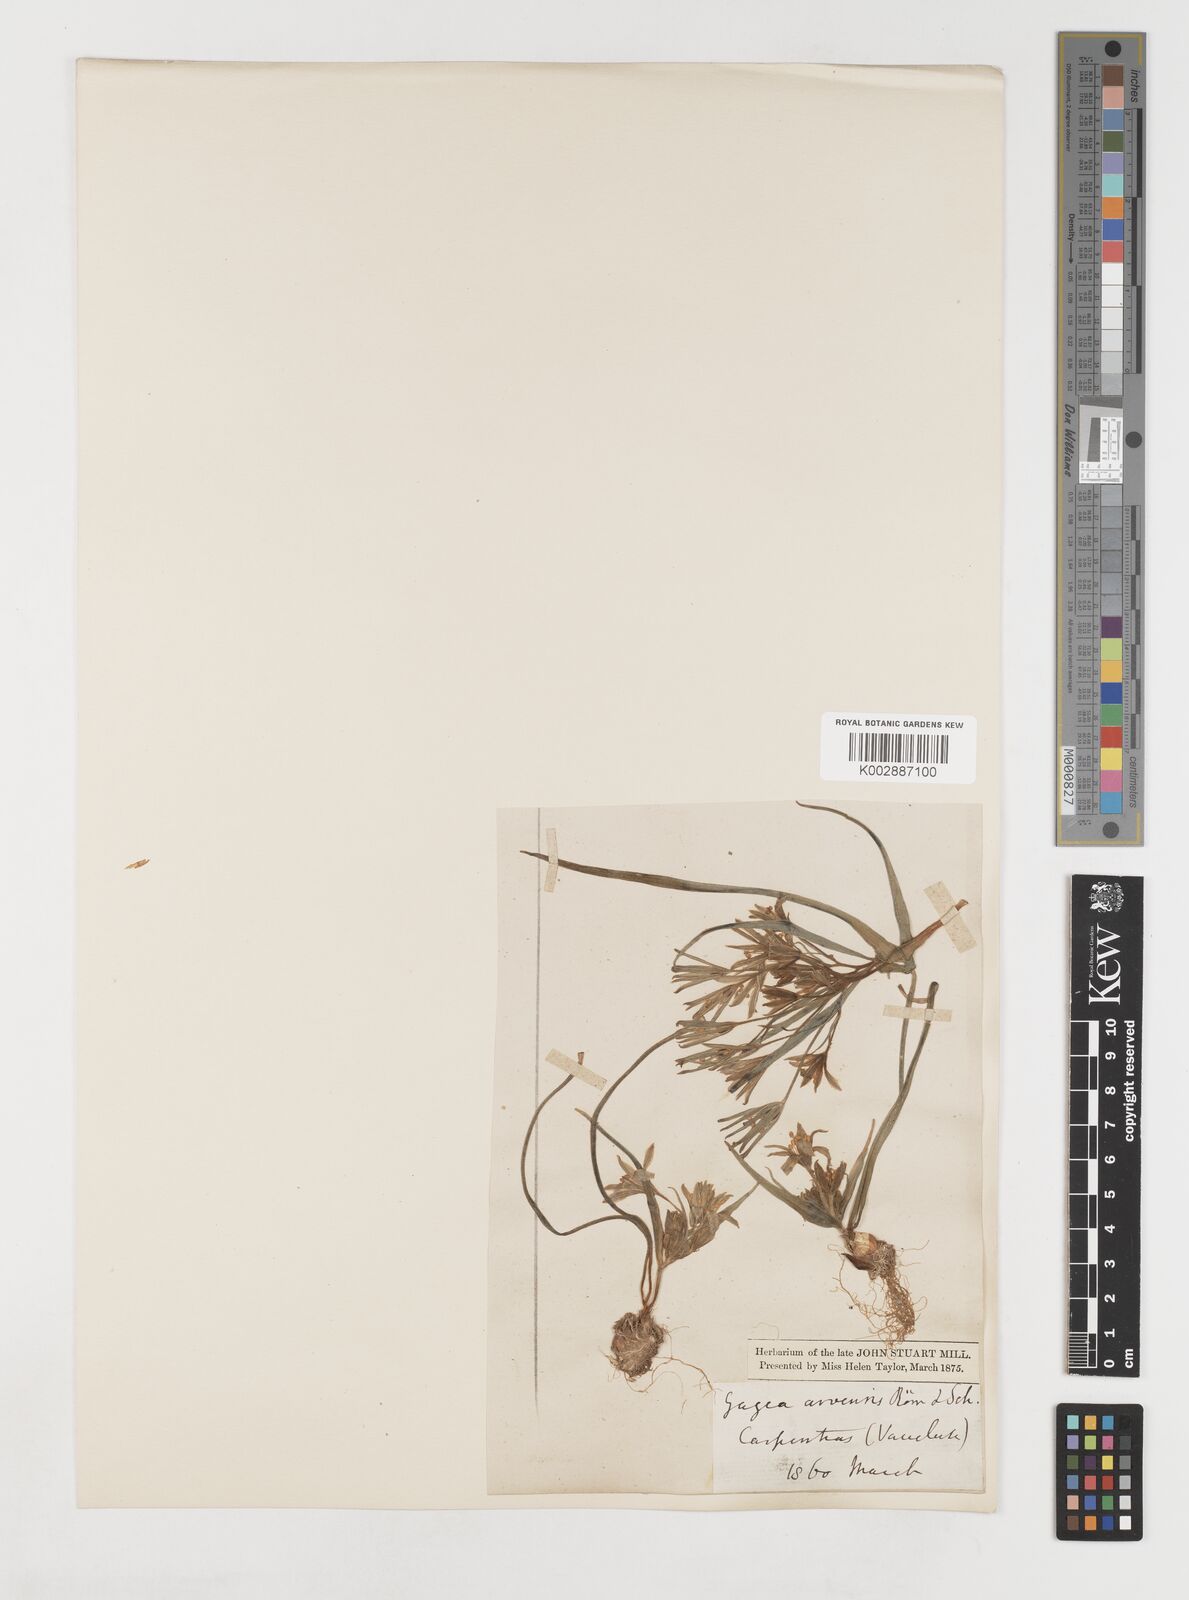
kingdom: Plantae
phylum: Tracheophyta
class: Liliopsida
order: Liliales
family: Liliaceae
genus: Gagea
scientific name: Gagea minima
